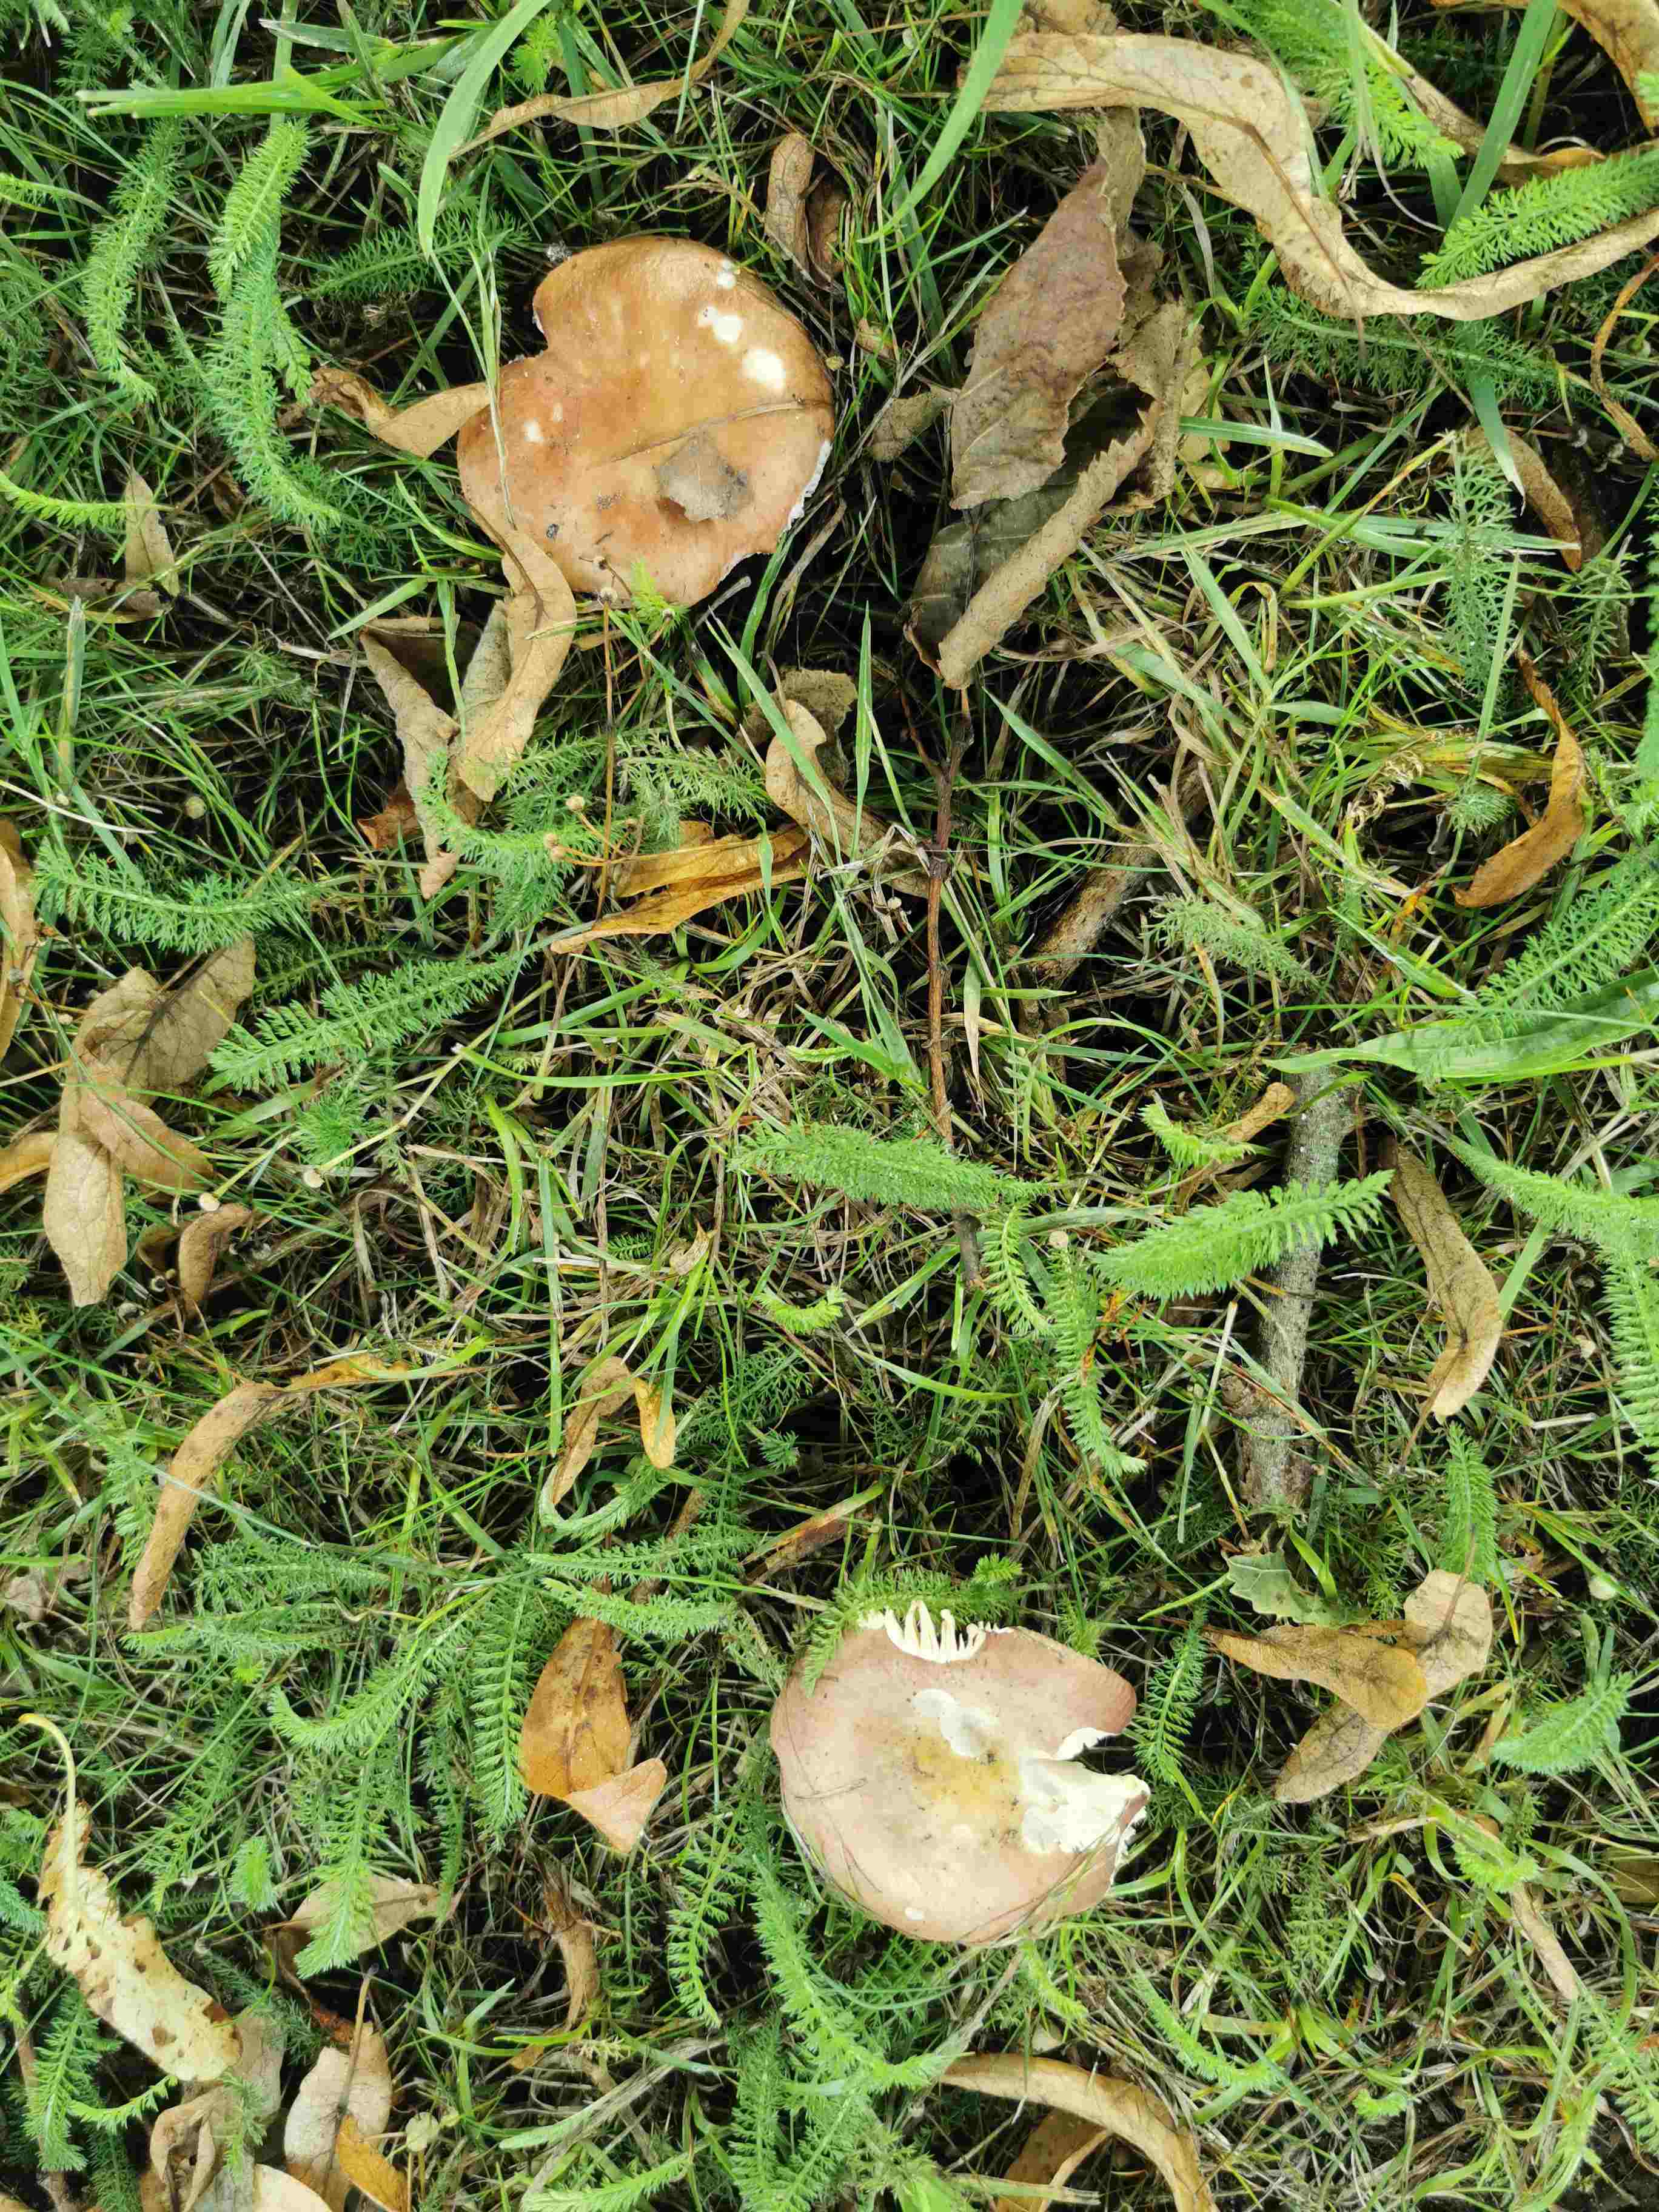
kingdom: Fungi
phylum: Basidiomycota
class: Agaricomycetes
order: Russulales
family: Russulaceae
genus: Russula
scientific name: Russula cuprea
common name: kanel-skørhat
